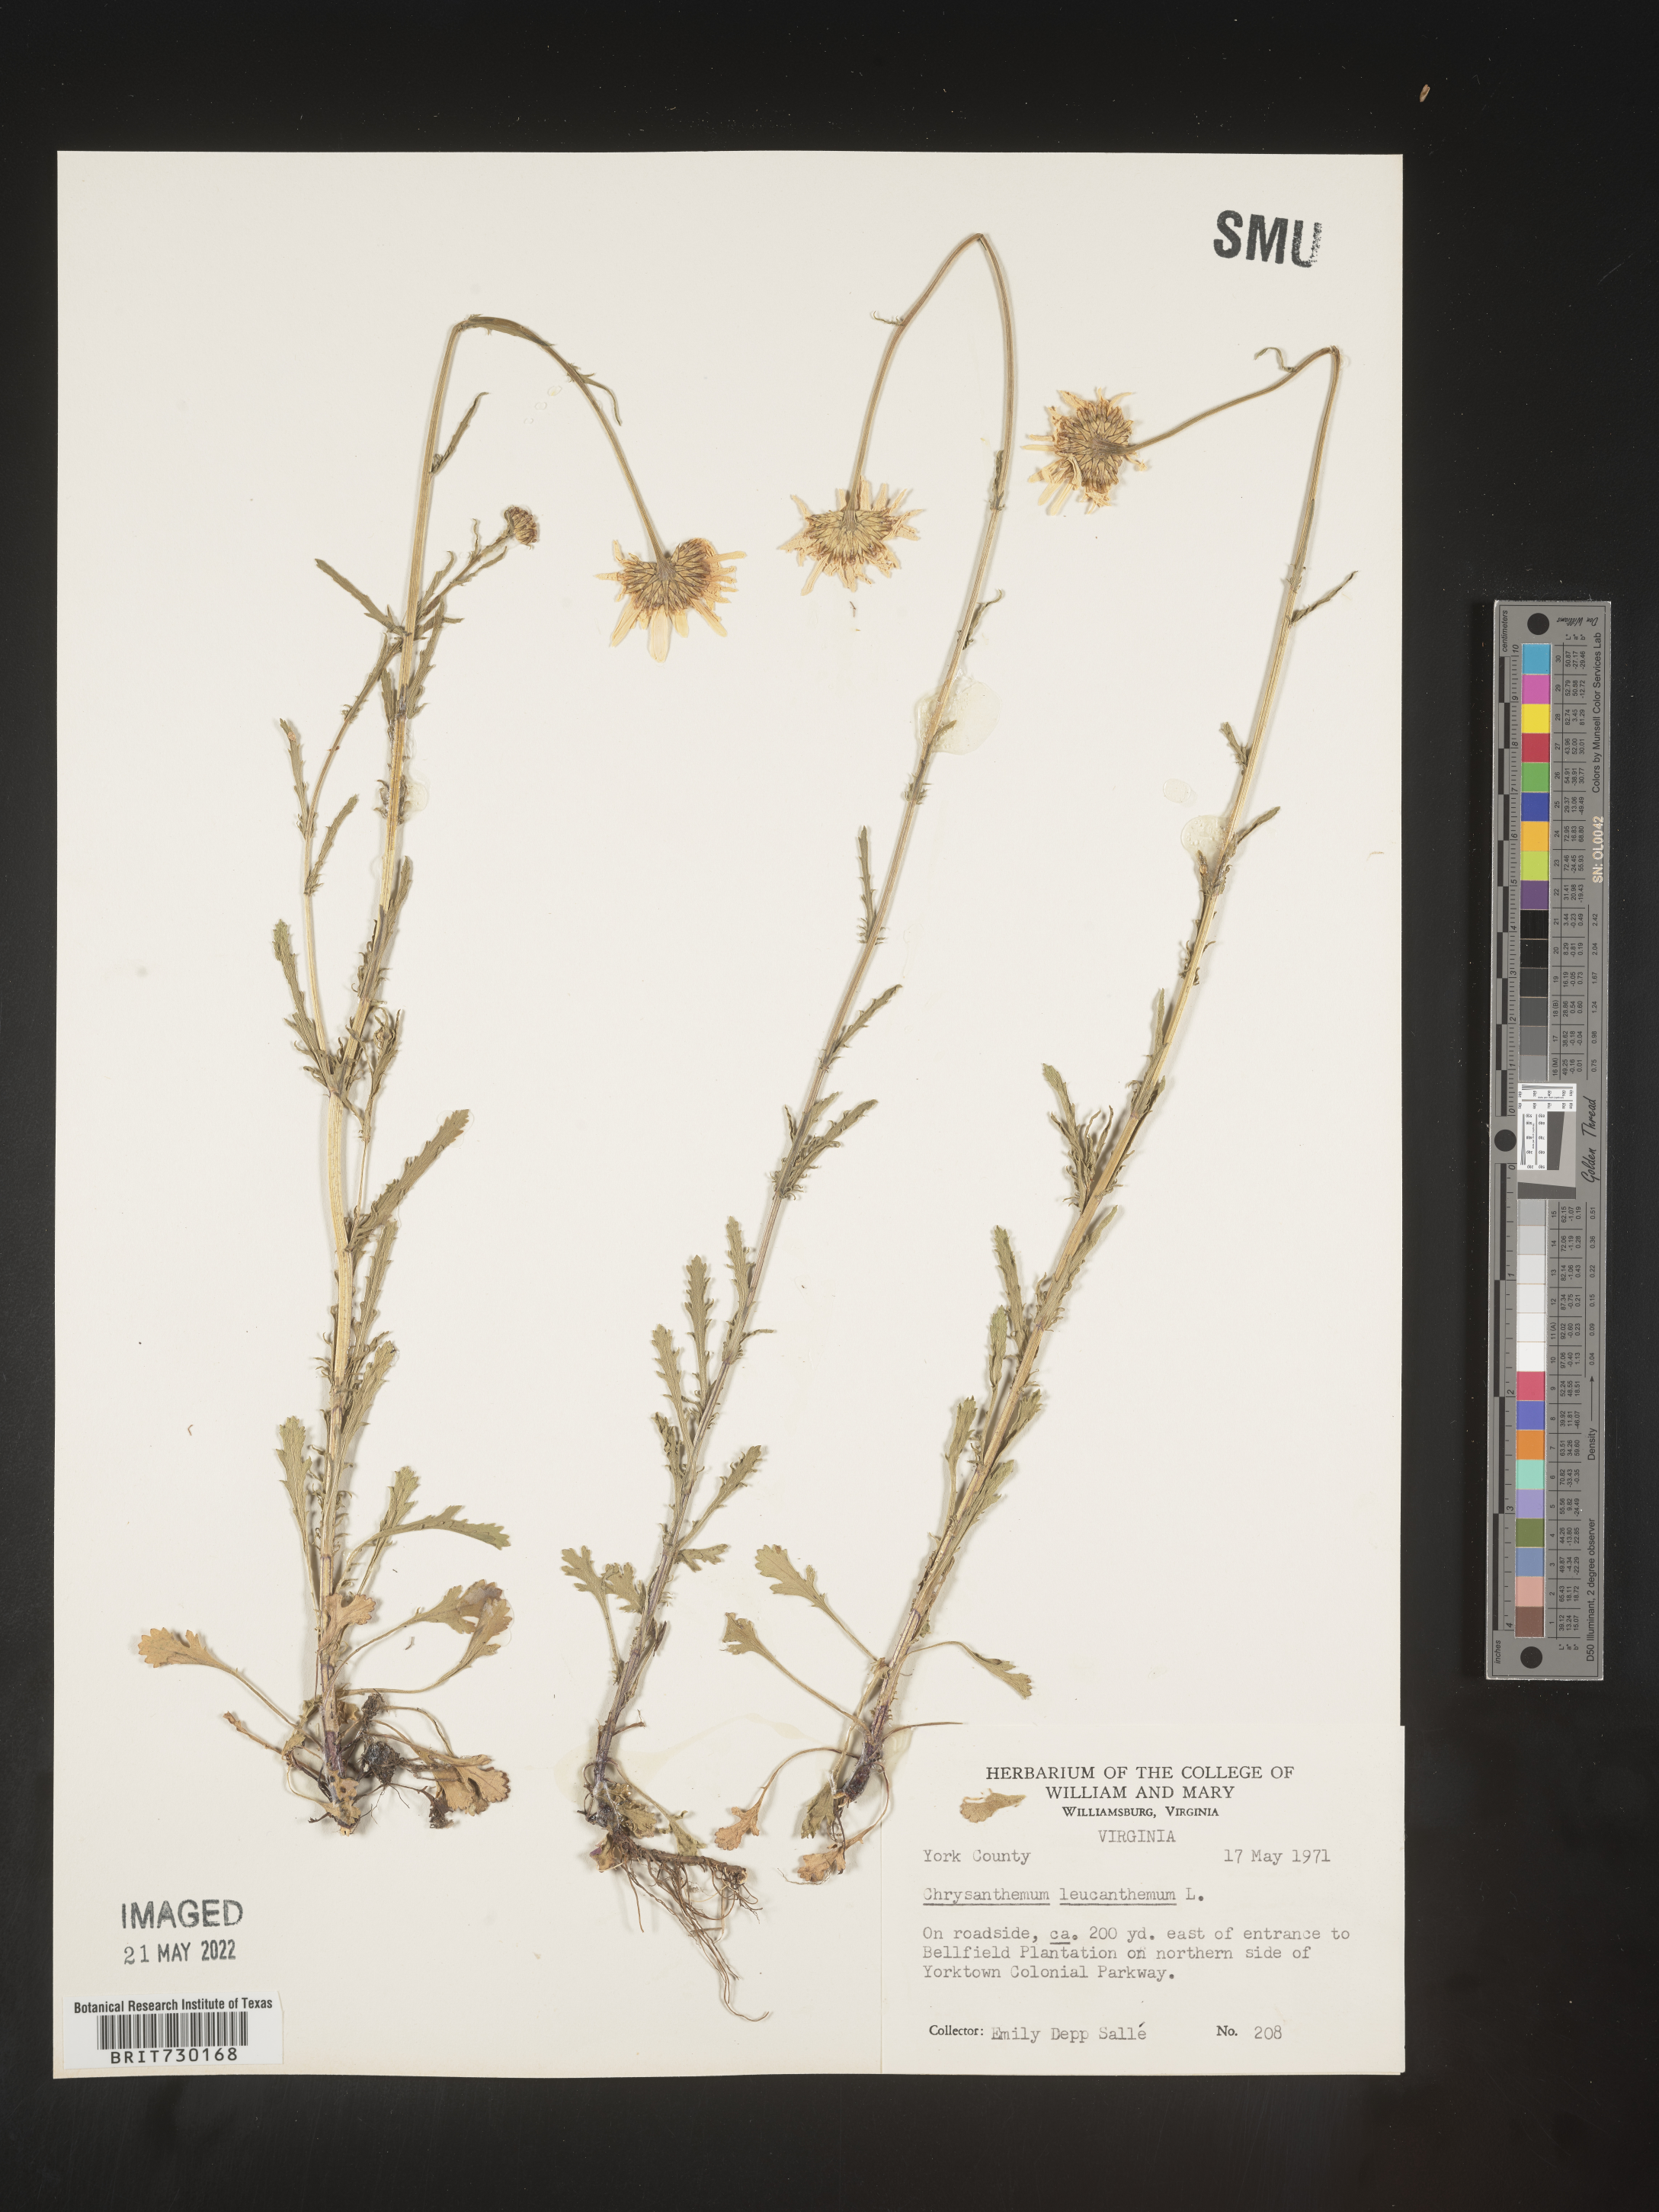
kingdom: Plantae
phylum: Tracheophyta
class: Magnoliopsida
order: Asterales
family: Asteraceae
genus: Leucanthemum
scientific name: Leucanthemum vulgare
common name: Oxeye daisy
